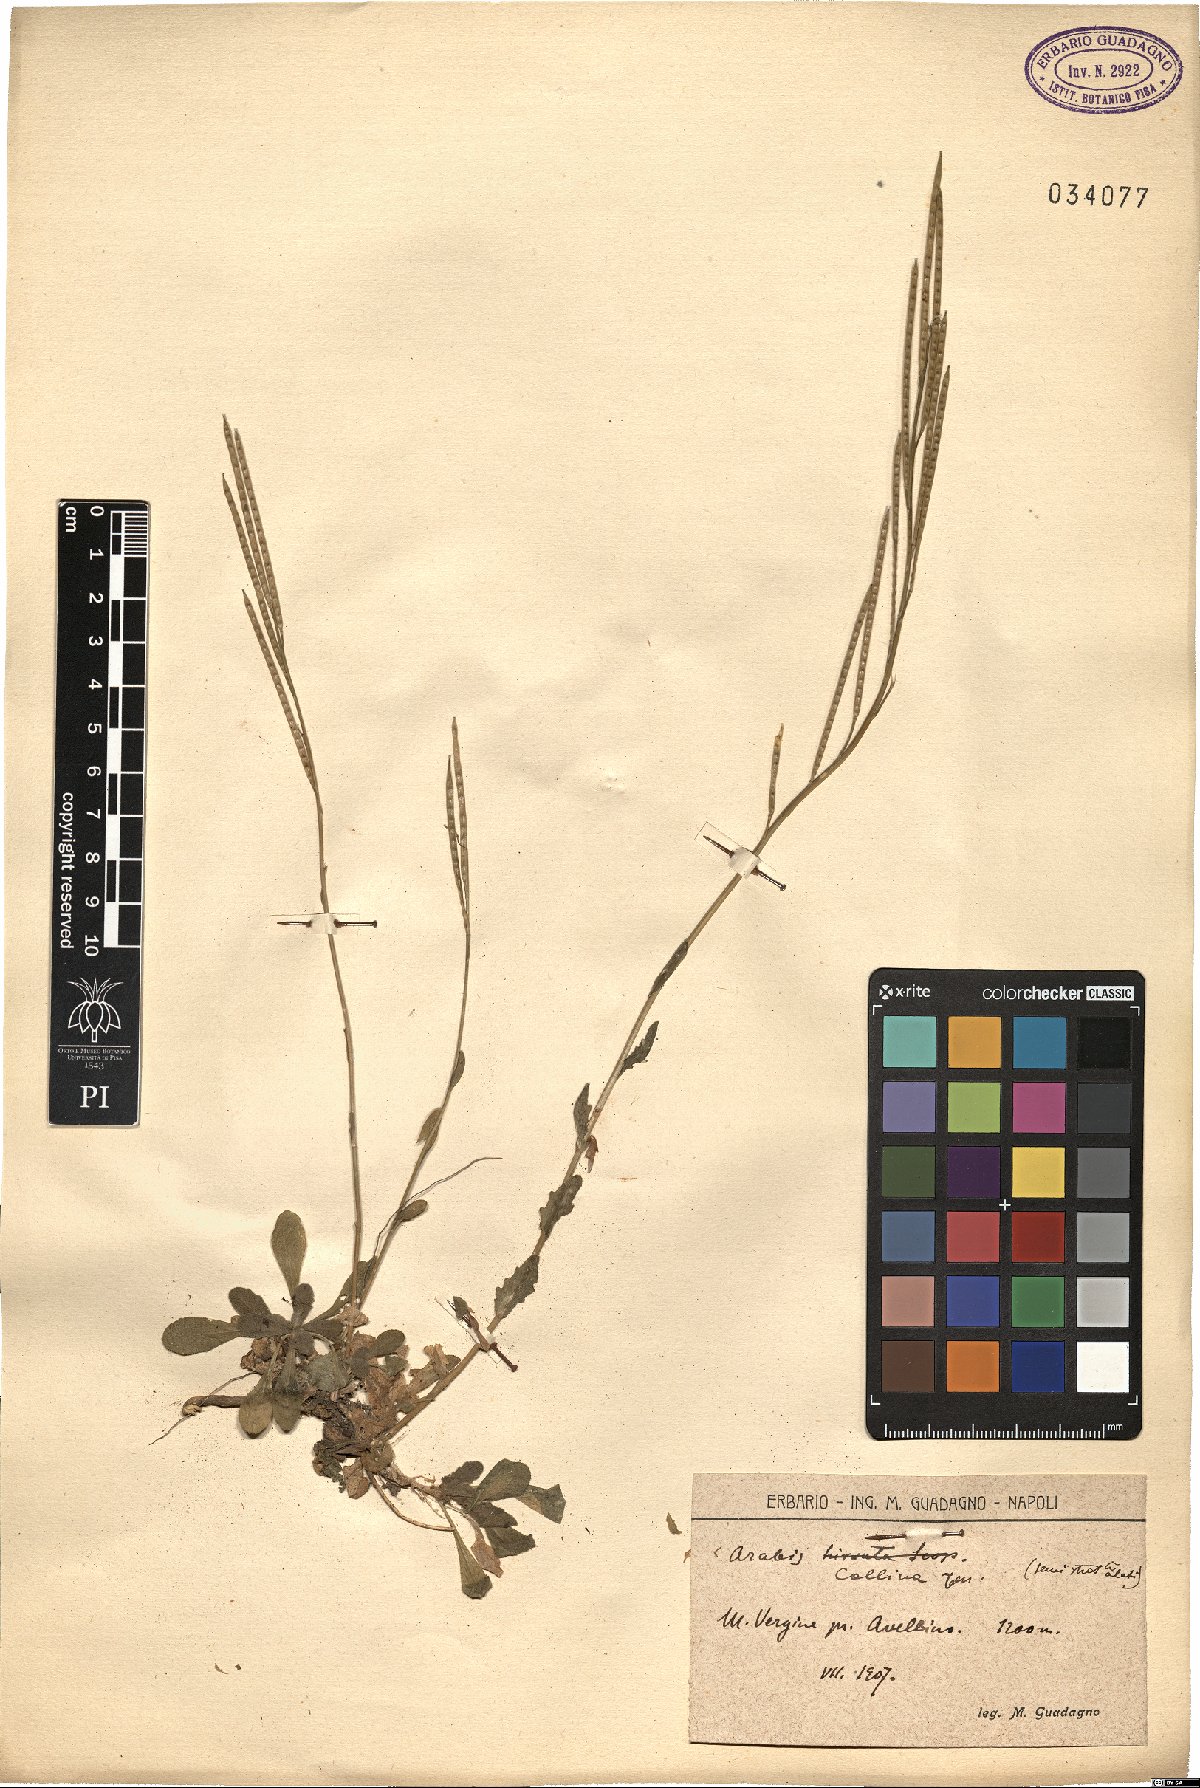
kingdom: Plantae
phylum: Tracheophyta
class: Magnoliopsida
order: Brassicales
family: Brassicaceae
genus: Arabis
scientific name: Arabis collina
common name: Rosy cress
